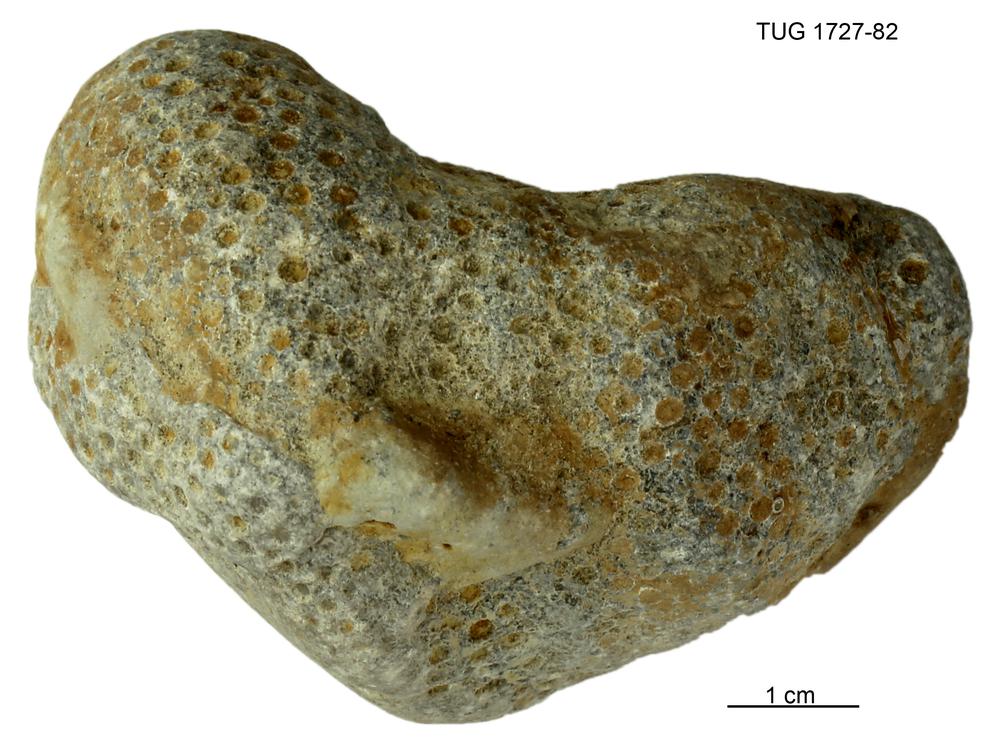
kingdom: Animalia
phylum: Xenacoelomorpha
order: Acoela
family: Proporidae
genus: Propora
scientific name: Propora
